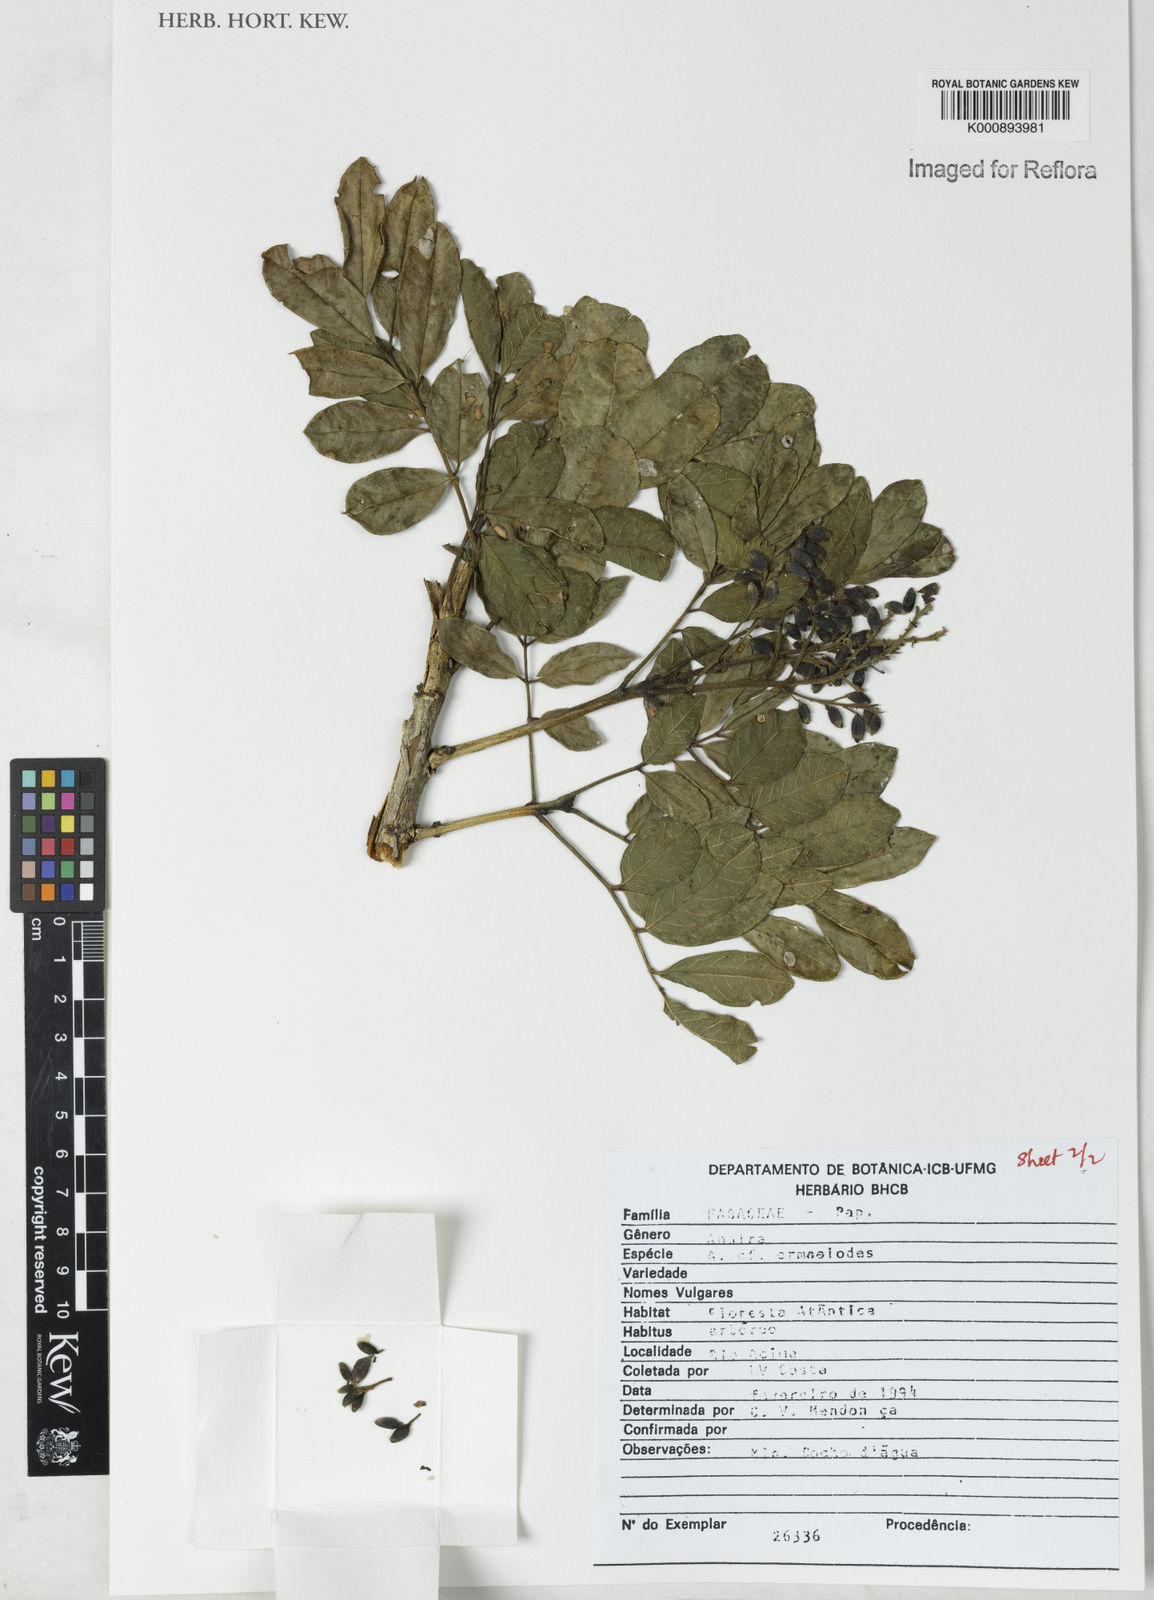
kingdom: Plantae
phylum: Tracheophyta
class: Magnoliopsida
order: Fabales
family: Fabaceae
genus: Andira
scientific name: Andira ormosioides
